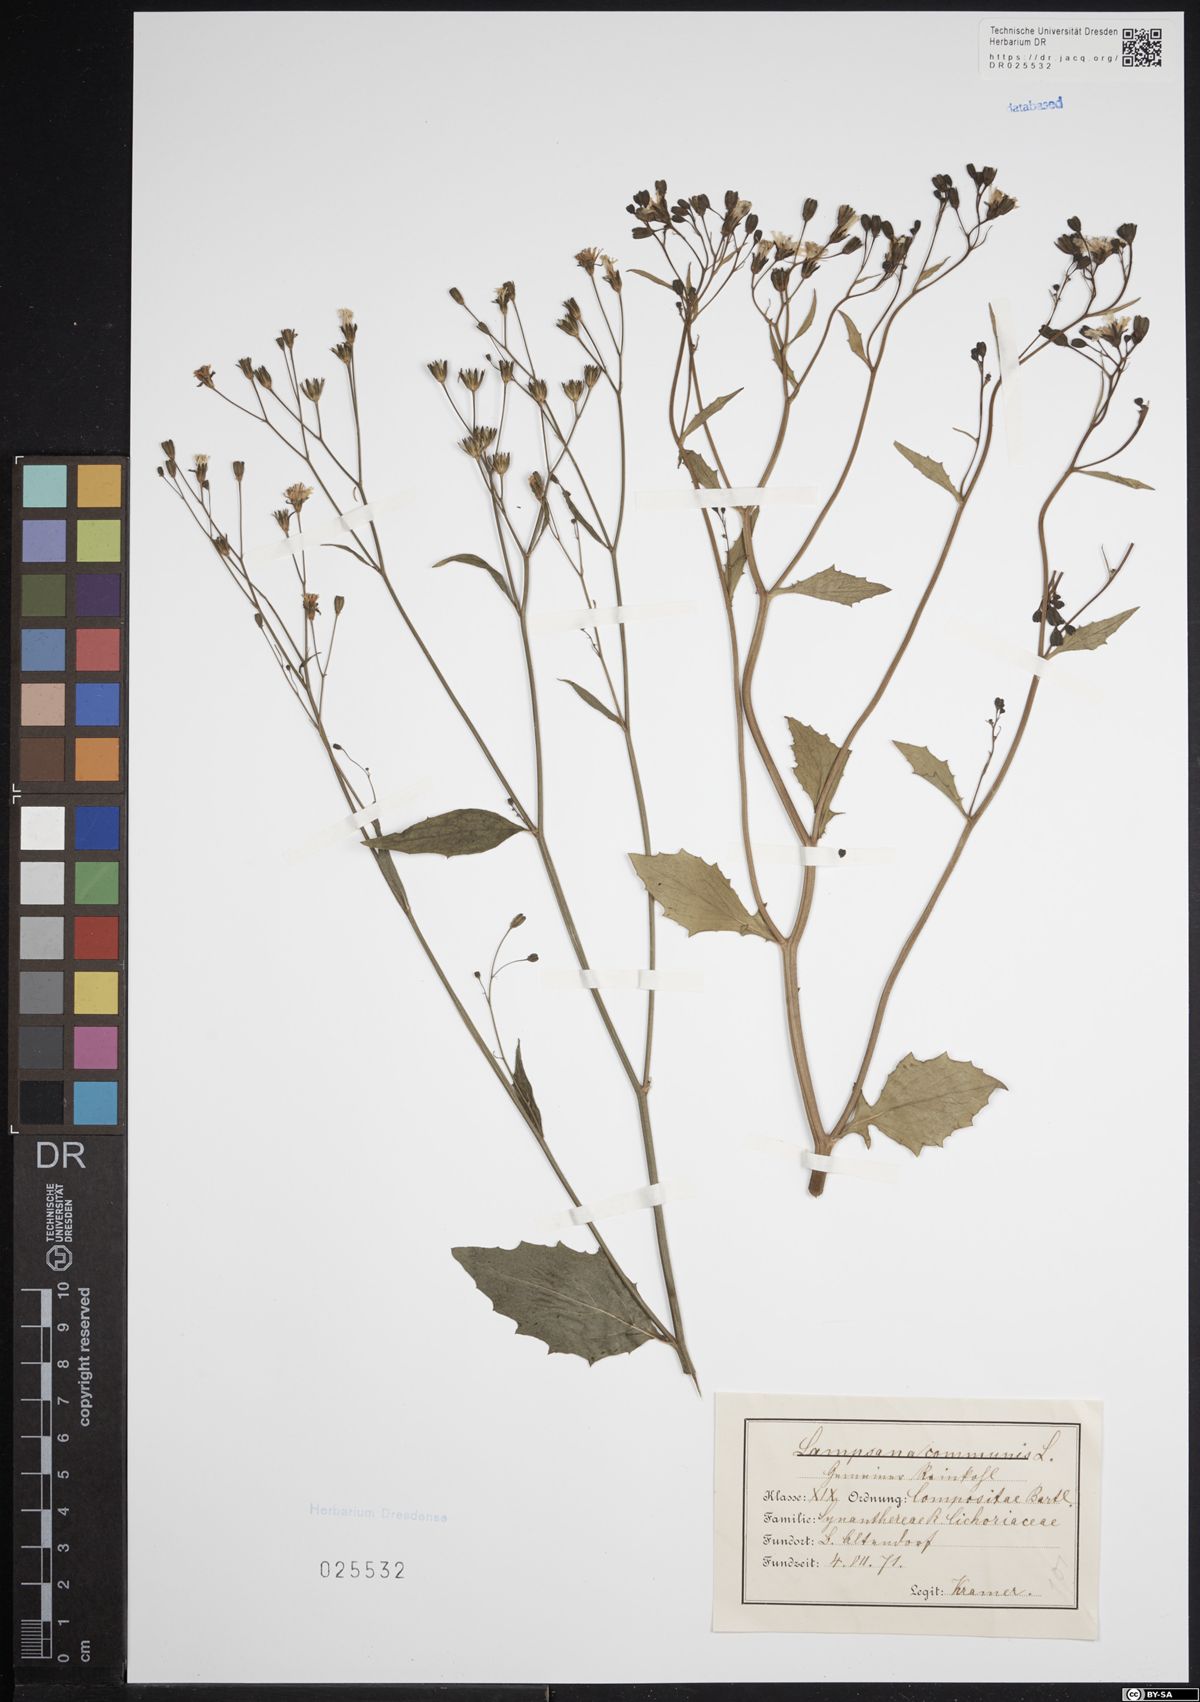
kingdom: Plantae
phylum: Tracheophyta
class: Magnoliopsida
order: Asterales
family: Asteraceae
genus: Lapsana
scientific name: Lapsana communis
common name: Nipplewort
